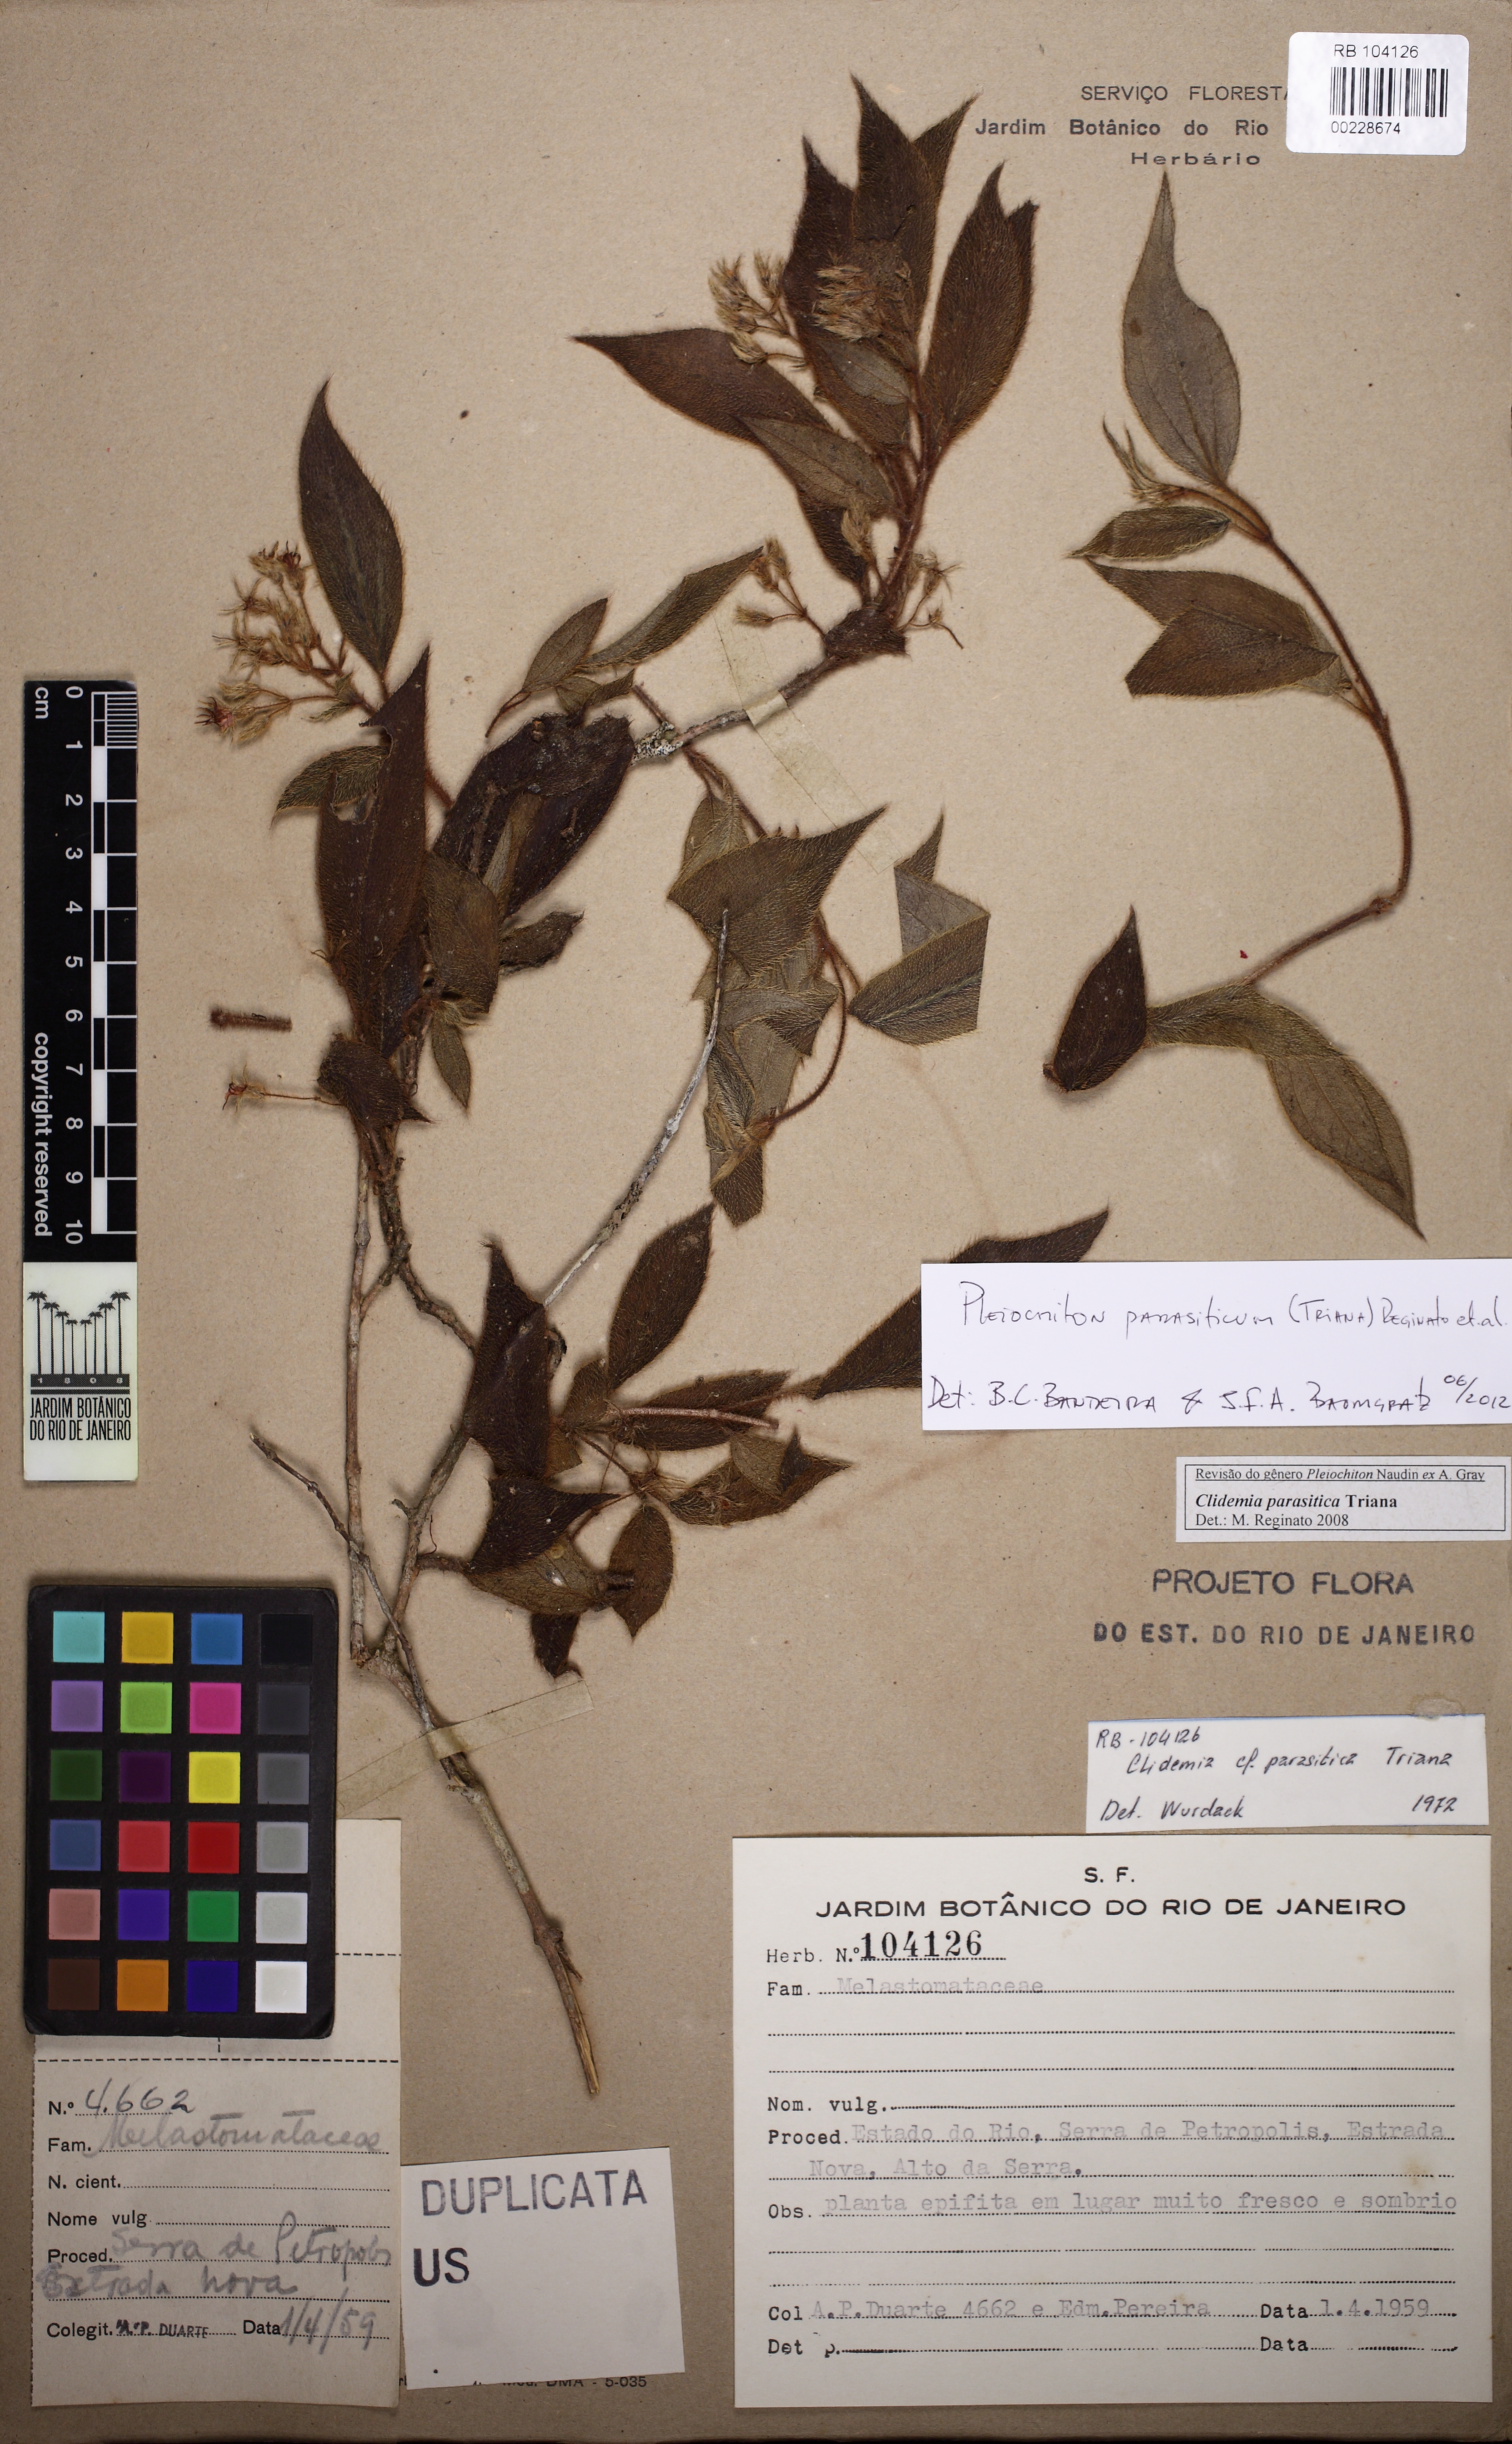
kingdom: Plantae
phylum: Tracheophyta
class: Magnoliopsida
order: Myrtales
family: Melastomataceae
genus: Miconia
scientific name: Miconia parasitica
